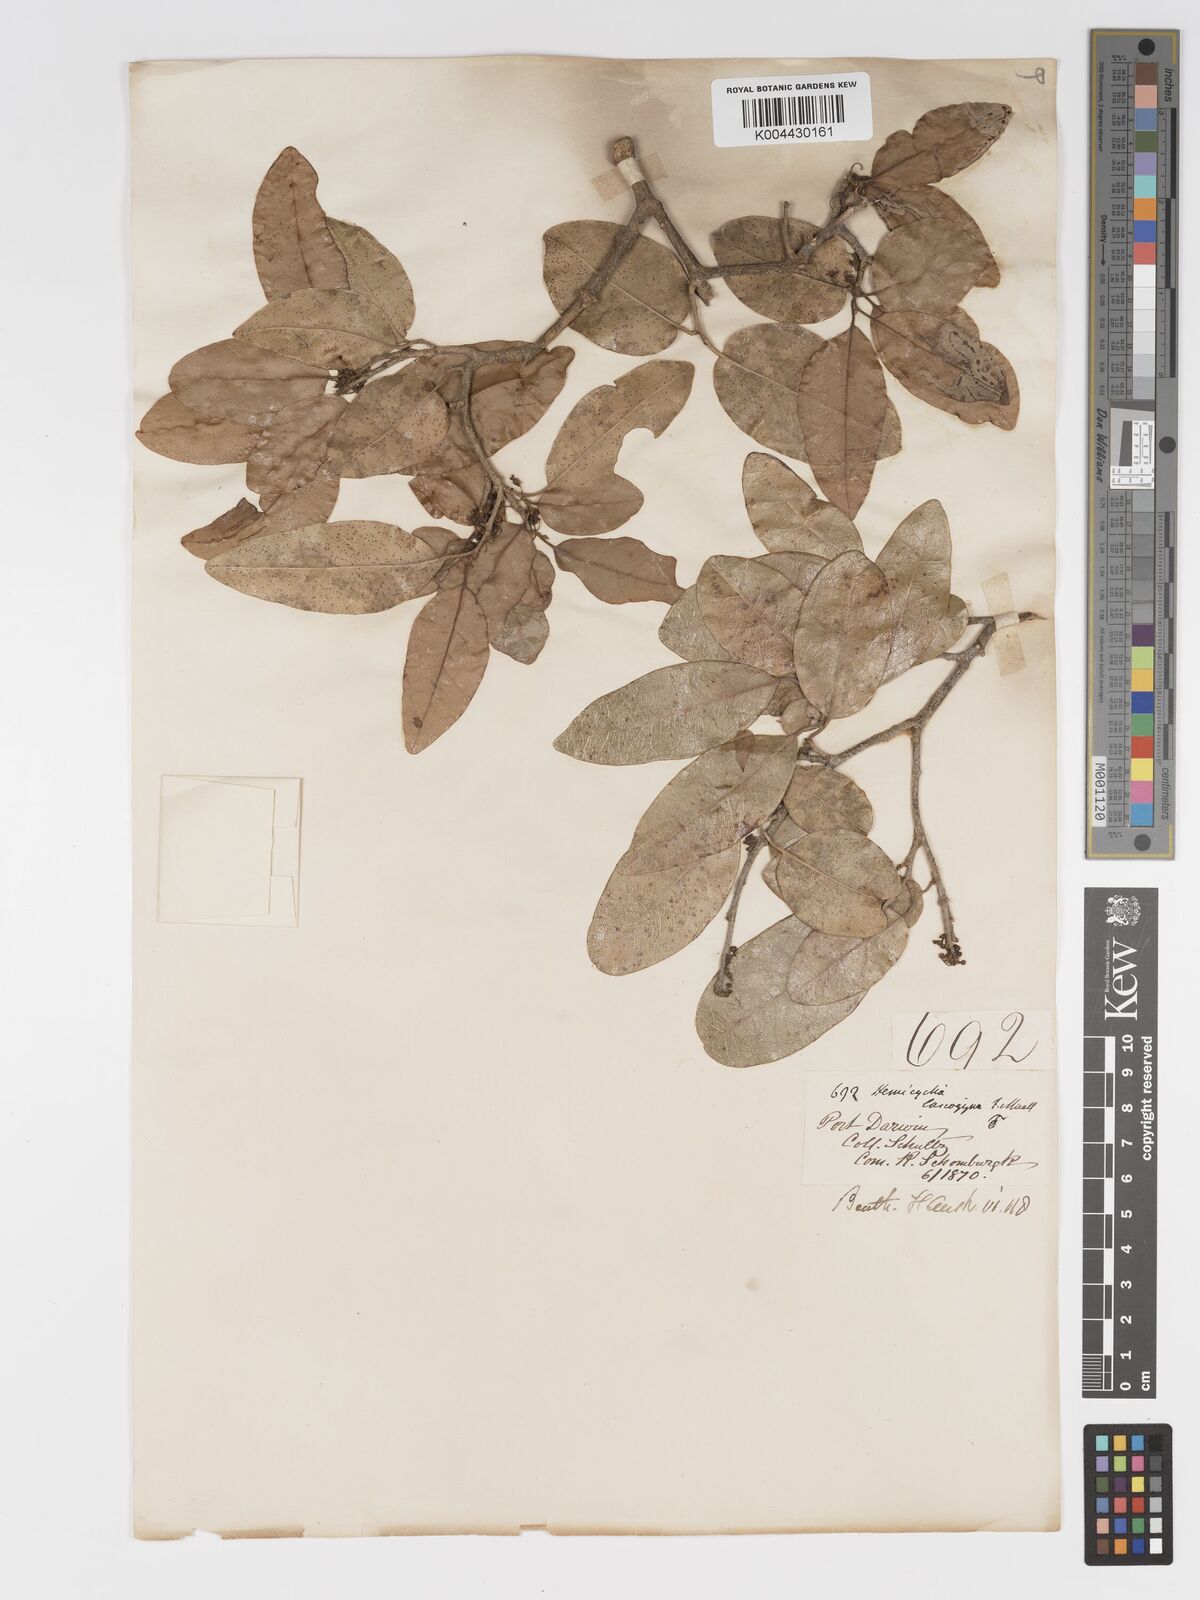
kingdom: Plantae
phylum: Tracheophyta
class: Magnoliopsida
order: Malpighiales
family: Putranjivaceae
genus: Drypetes
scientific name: Drypetes deplanchei
